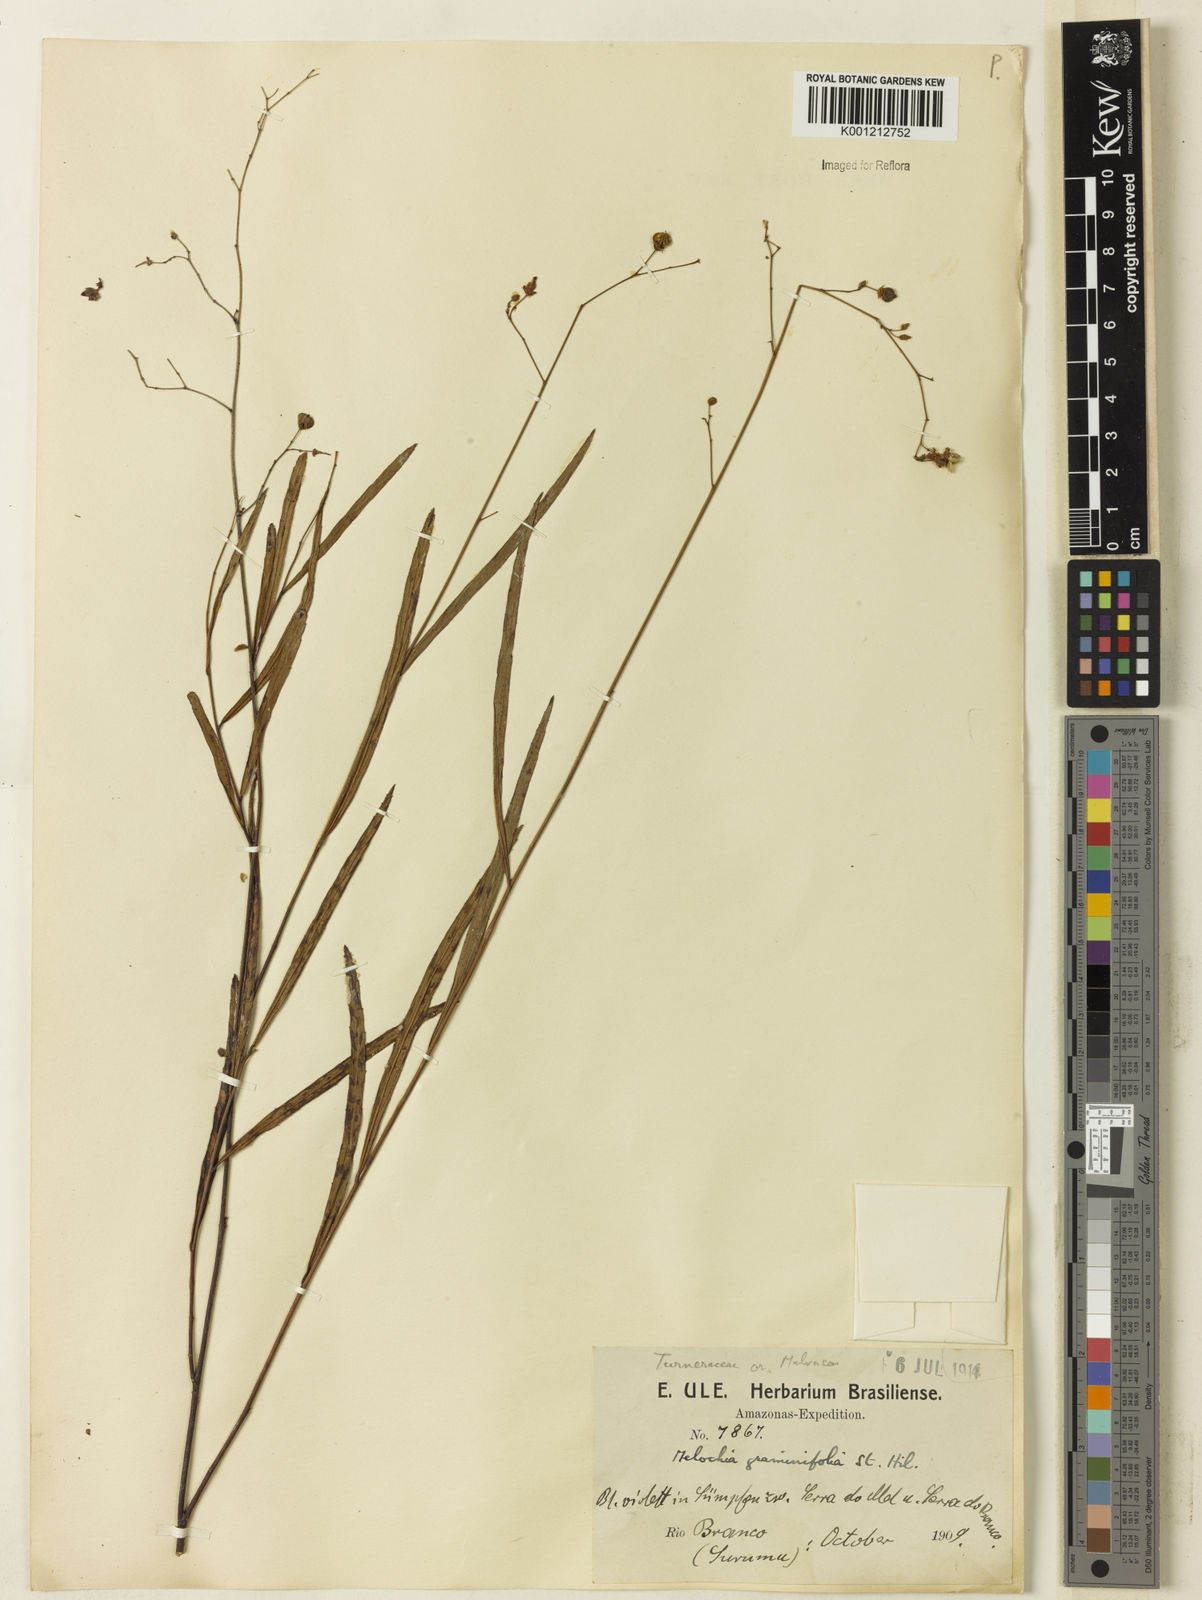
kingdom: Plantae
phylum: Tracheophyta
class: Magnoliopsida
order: Malvales
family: Malvaceae
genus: Melochia
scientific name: Melochia graminifolia
